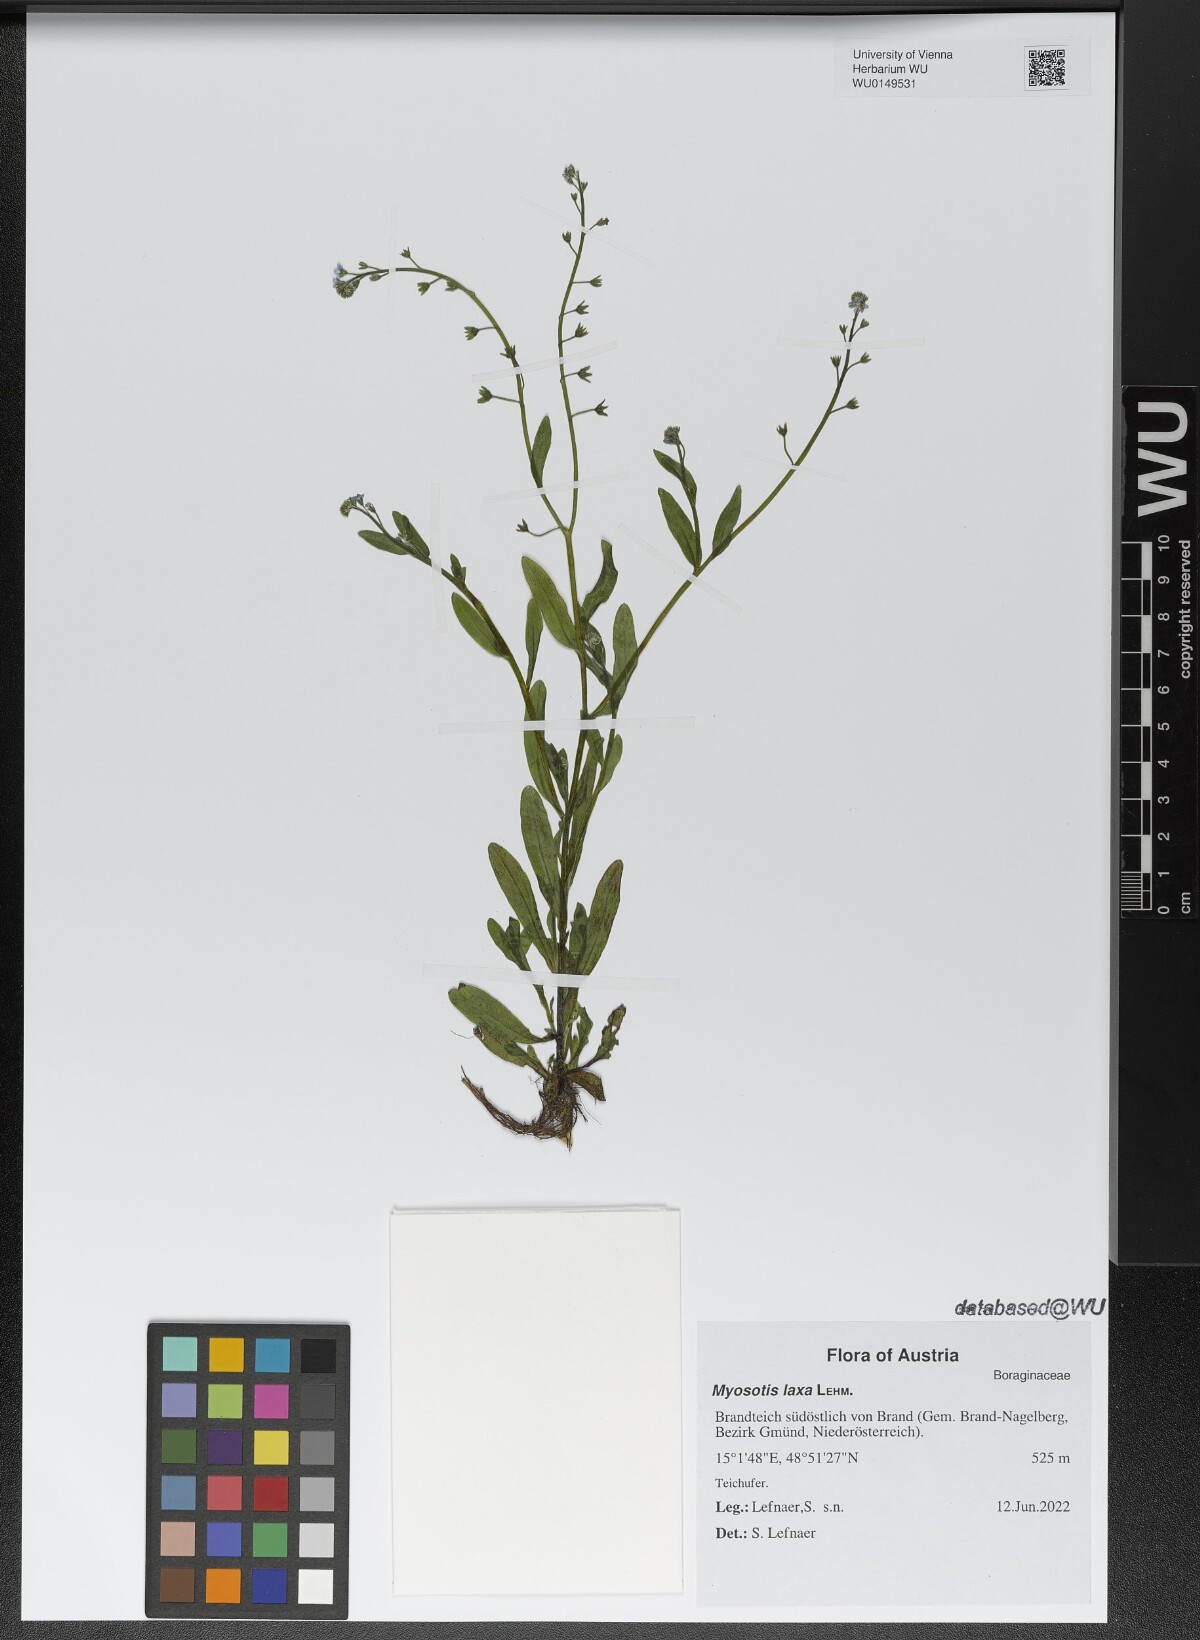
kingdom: Plantae
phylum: Tracheophyta
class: Magnoliopsida
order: Boraginales
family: Boraginaceae
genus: Myosotis
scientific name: Myosotis laxa
